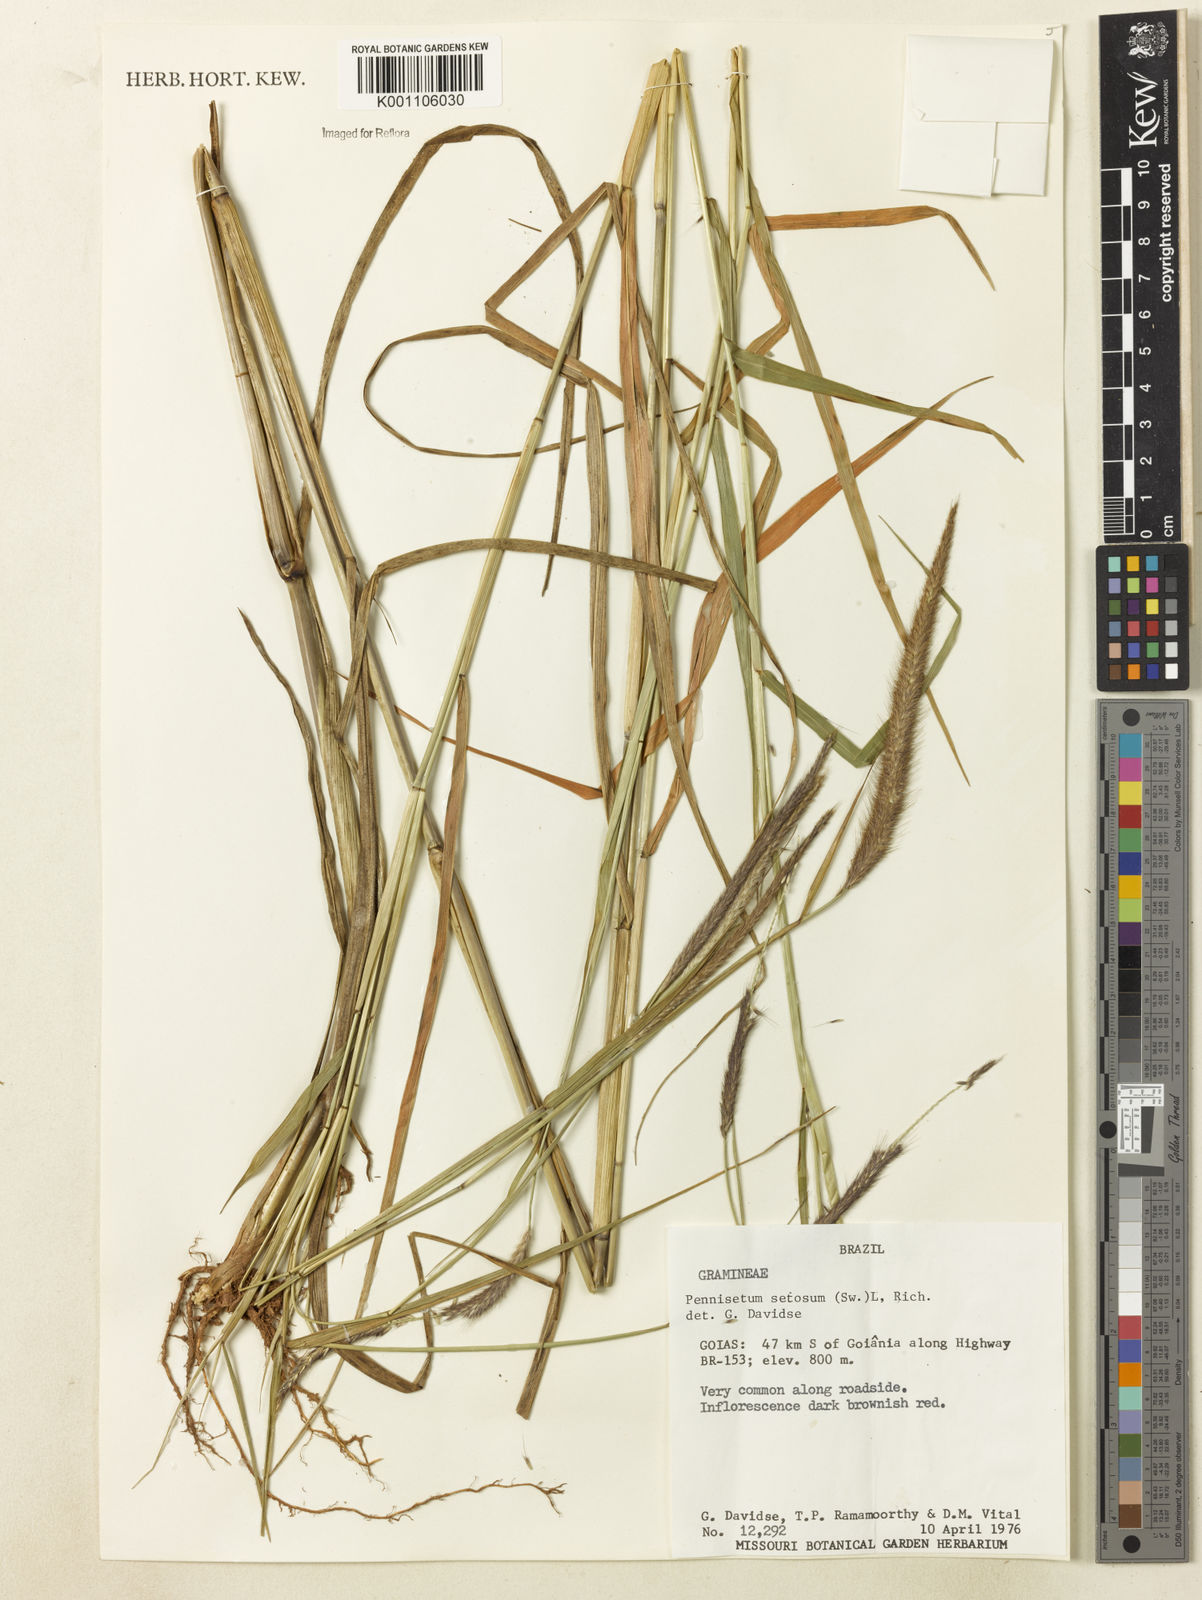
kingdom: Plantae
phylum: Tracheophyta
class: Liliopsida
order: Poales
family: Poaceae
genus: Setaria
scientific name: Setaria parviflora
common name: Knotroot bristle-grass
